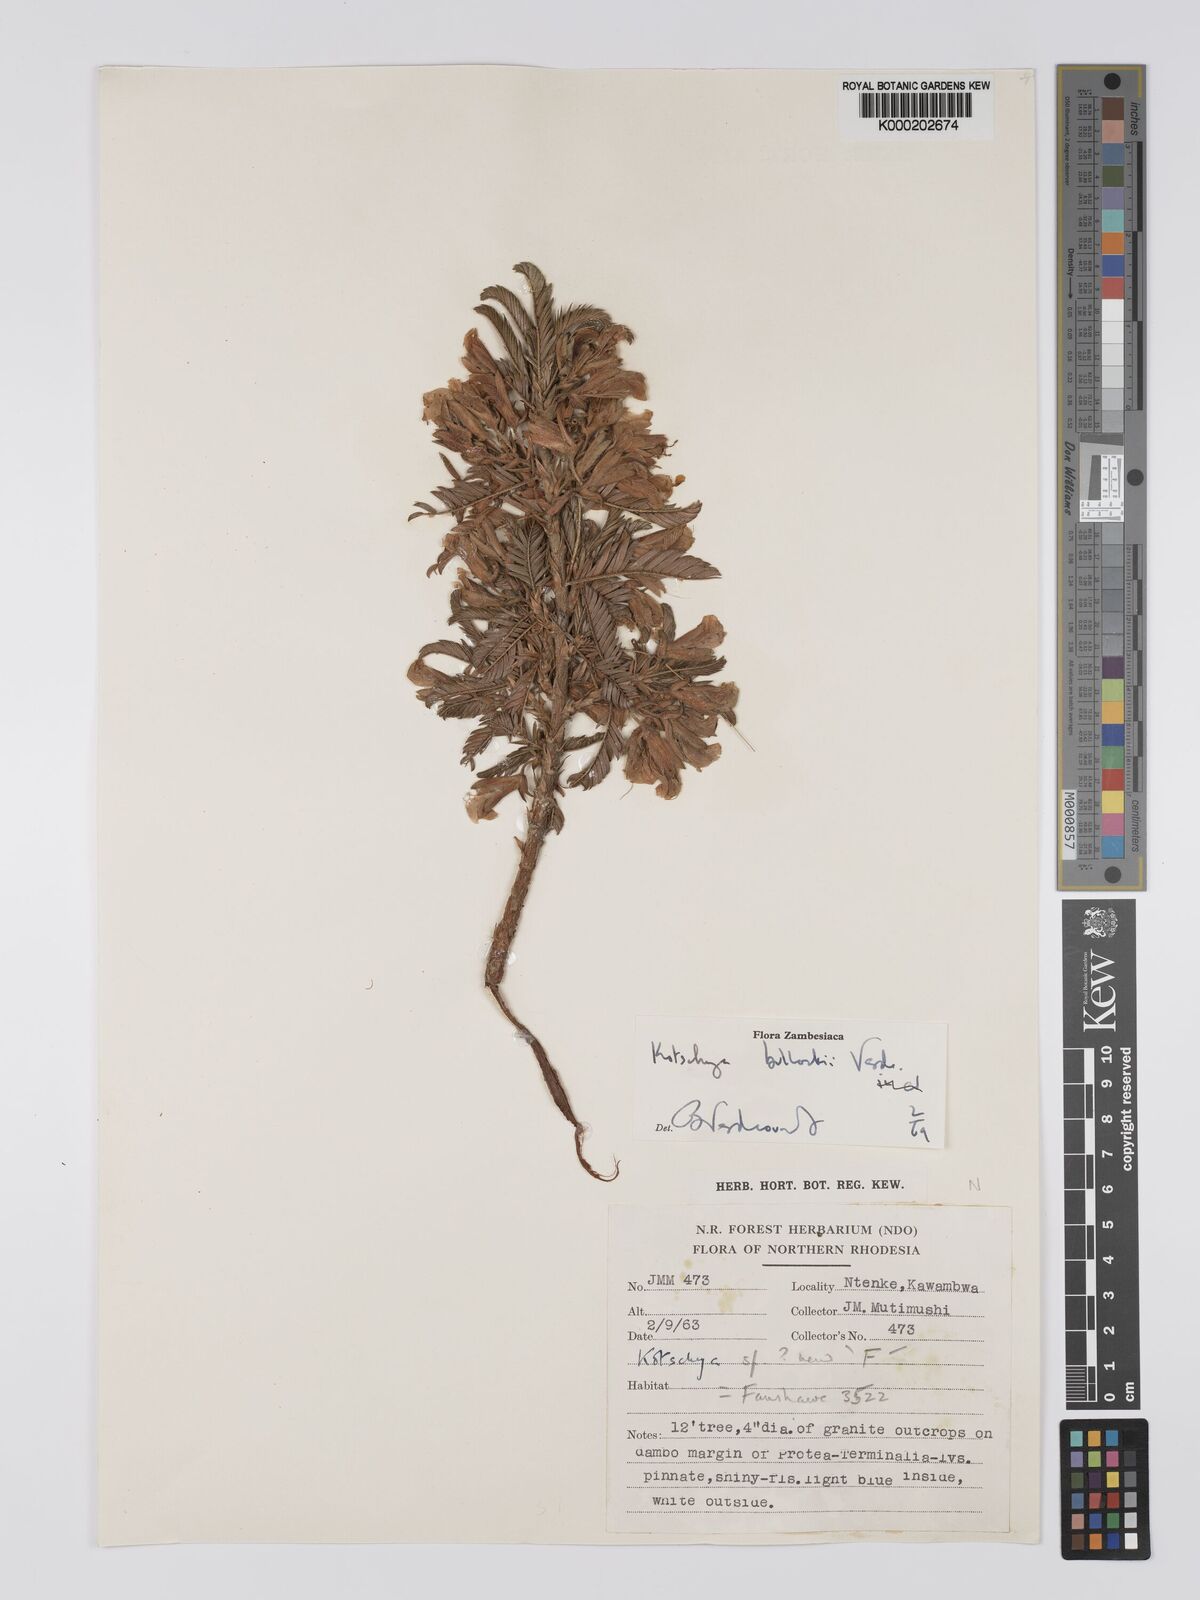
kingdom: Plantae
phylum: Tracheophyta
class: Magnoliopsida
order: Fabales
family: Fabaceae
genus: Kotschya
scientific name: Kotschya bullockii
